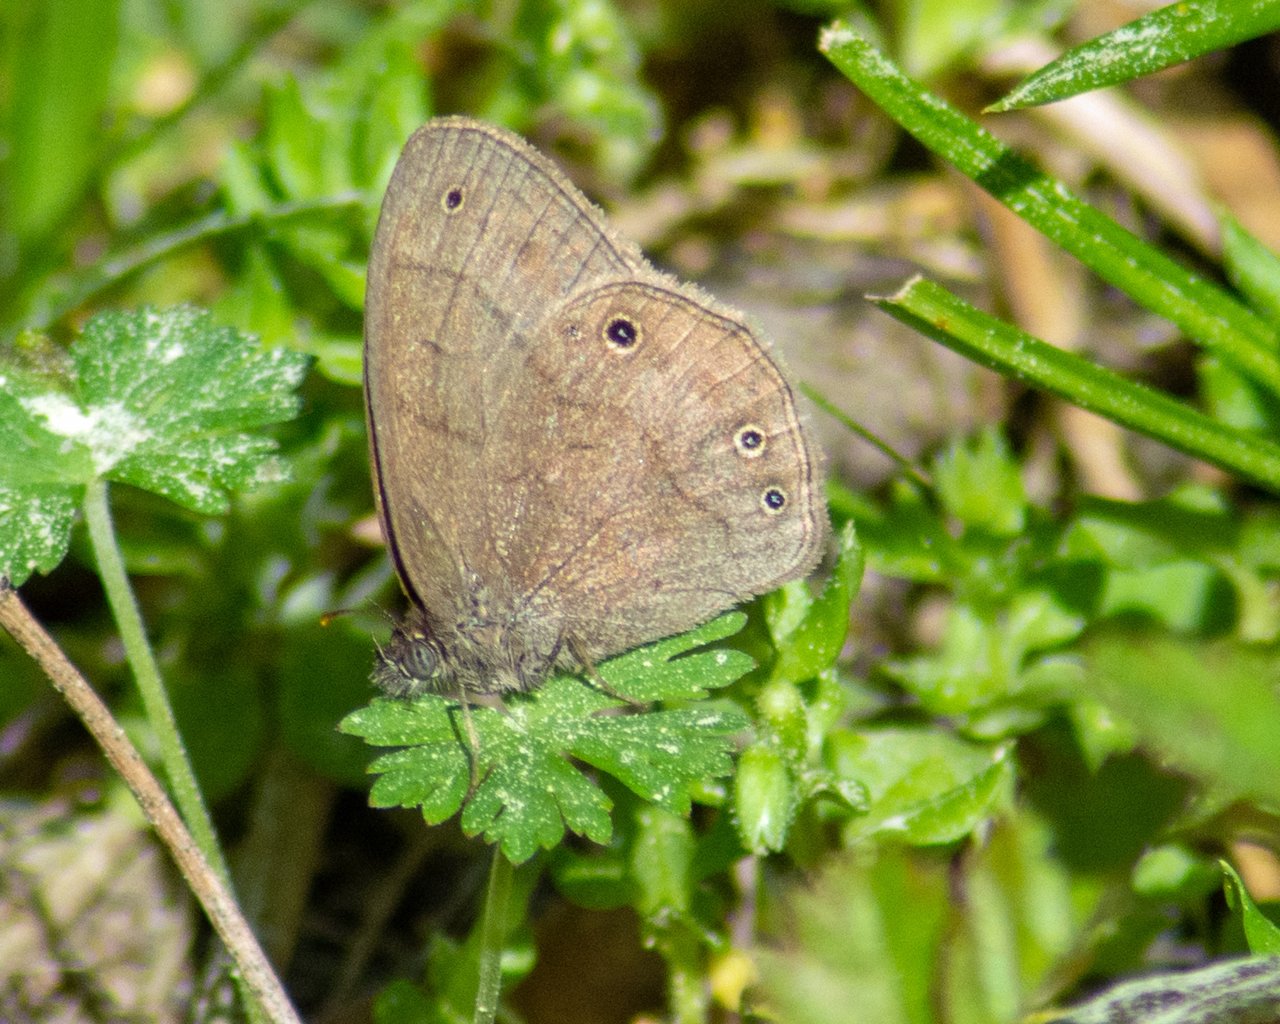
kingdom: Animalia
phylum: Arthropoda
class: Insecta
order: Lepidoptera
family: Nymphalidae
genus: Hermeuptychia
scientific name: Hermeuptychia hermes
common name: Carolina Satyr
